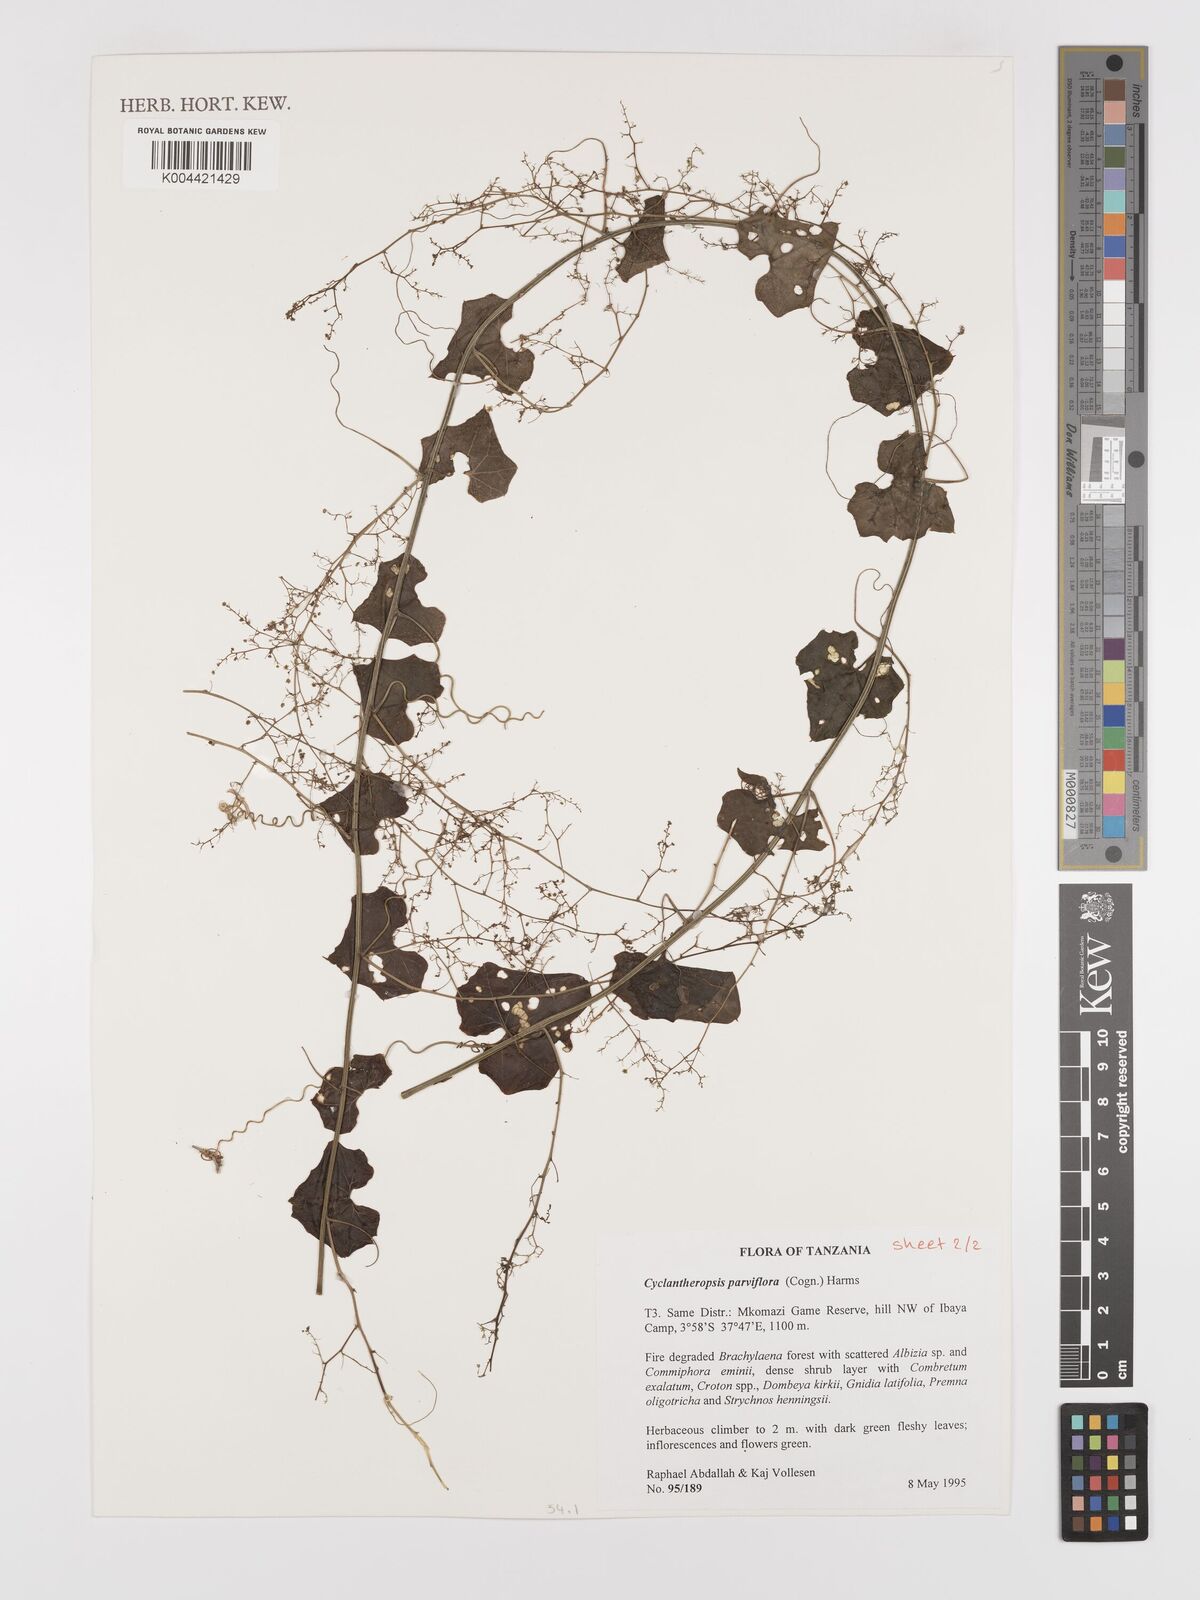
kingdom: Plantae
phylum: Tracheophyta
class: Magnoliopsida
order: Cucurbitales
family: Cucurbitaceae
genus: Cyclantheropsis
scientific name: Cyclantheropsis parviflora
